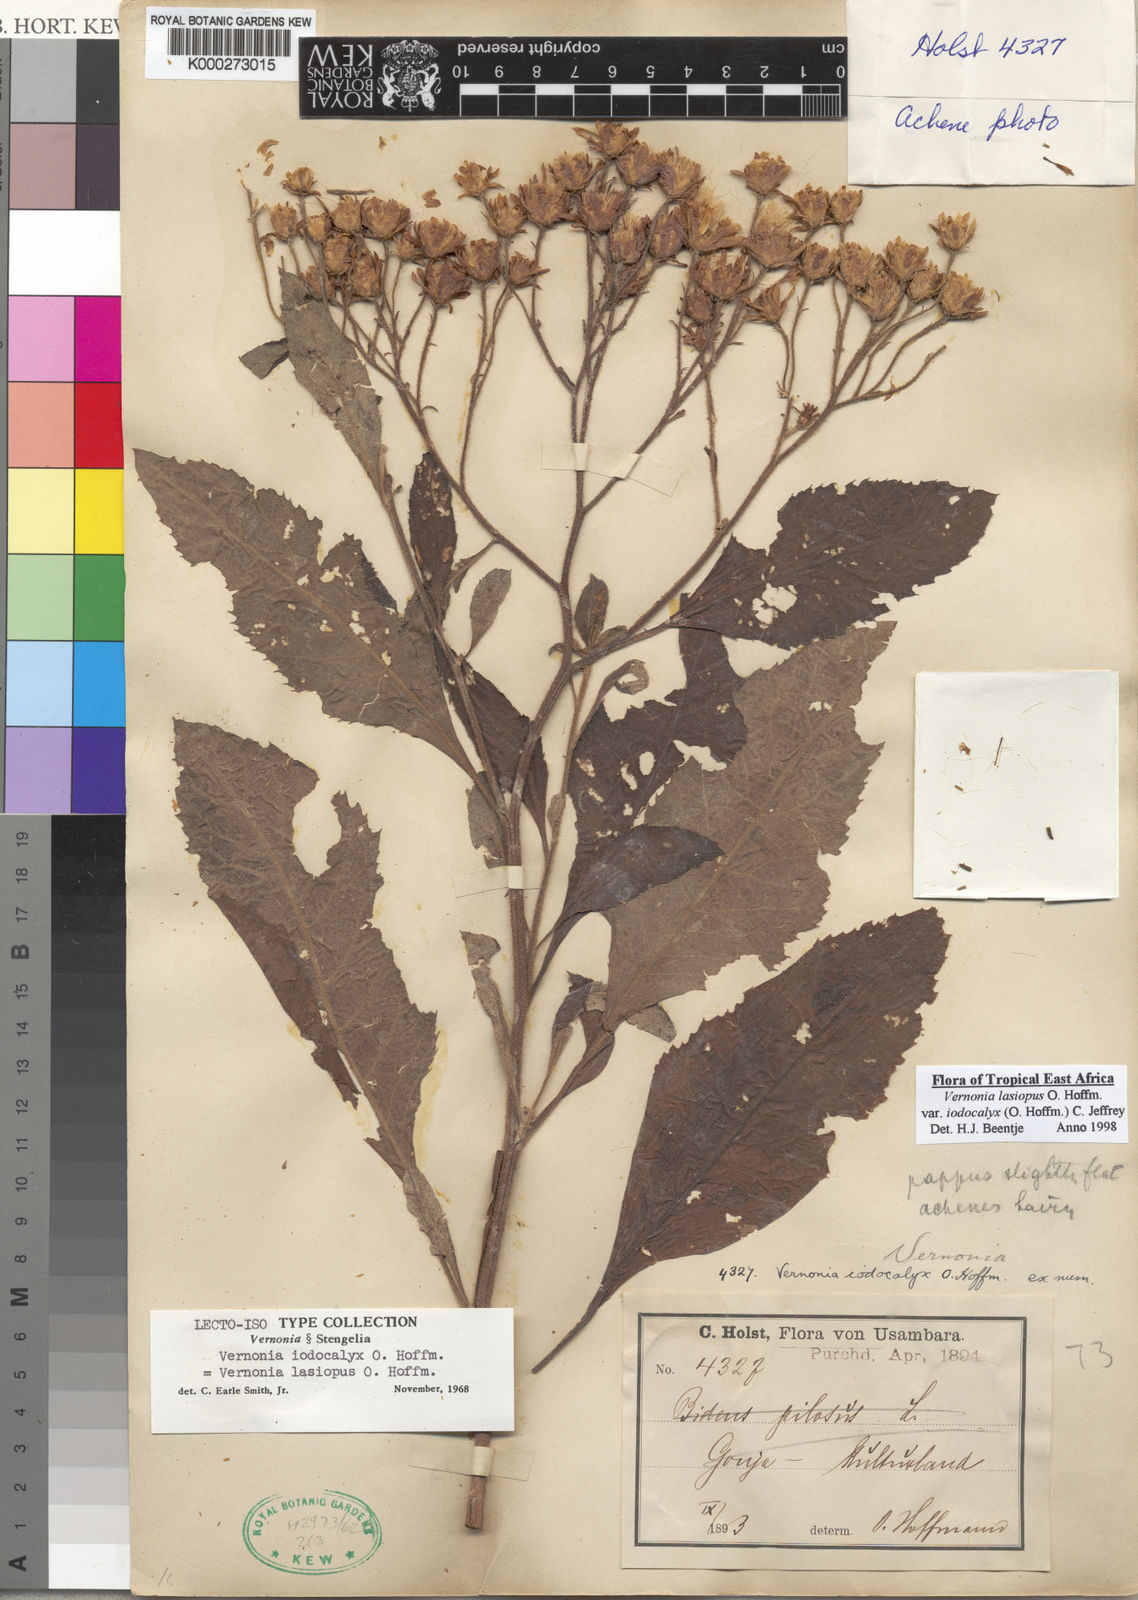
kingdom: Plantae
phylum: Tracheophyta
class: Magnoliopsida
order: Asterales
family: Asteraceae
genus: Baccharoides
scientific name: Baccharoides lasiopus
